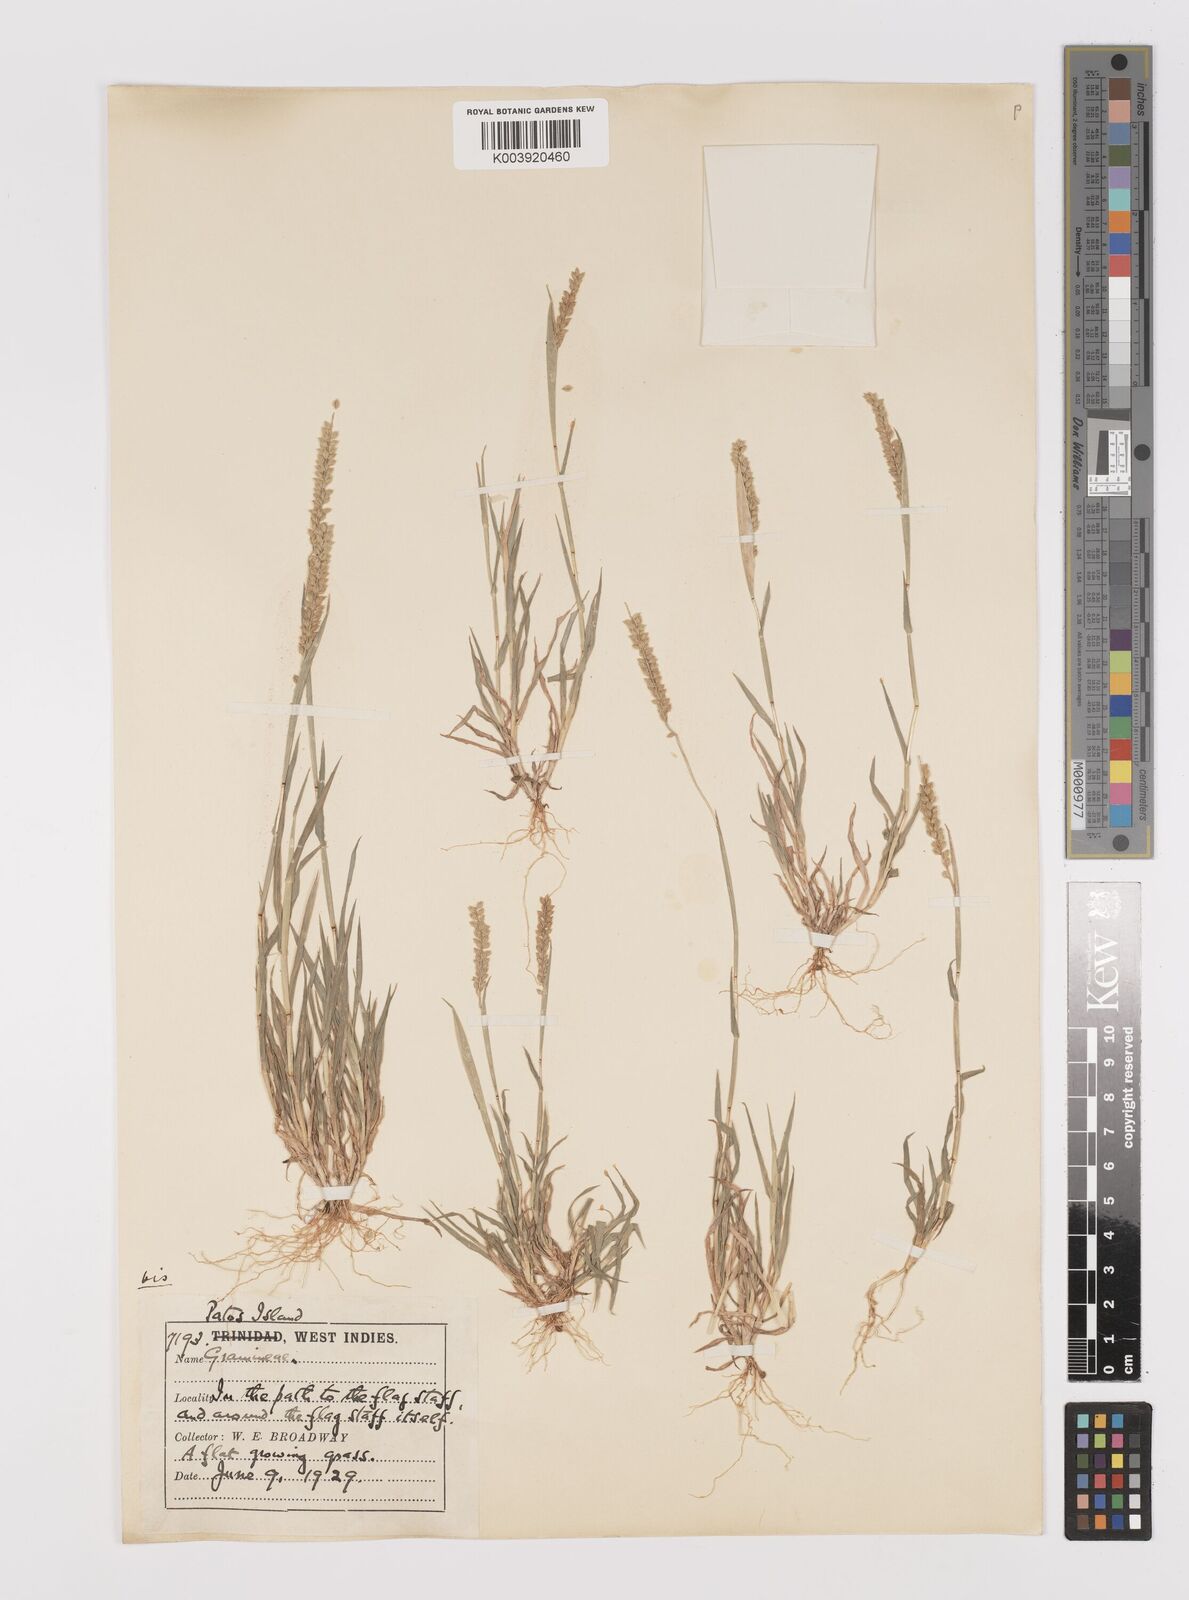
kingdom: Plantae
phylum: Tracheophyta
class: Liliopsida
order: Poales
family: Poaceae
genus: Tragus
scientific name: Tragus berteronianus
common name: African bur-grass
